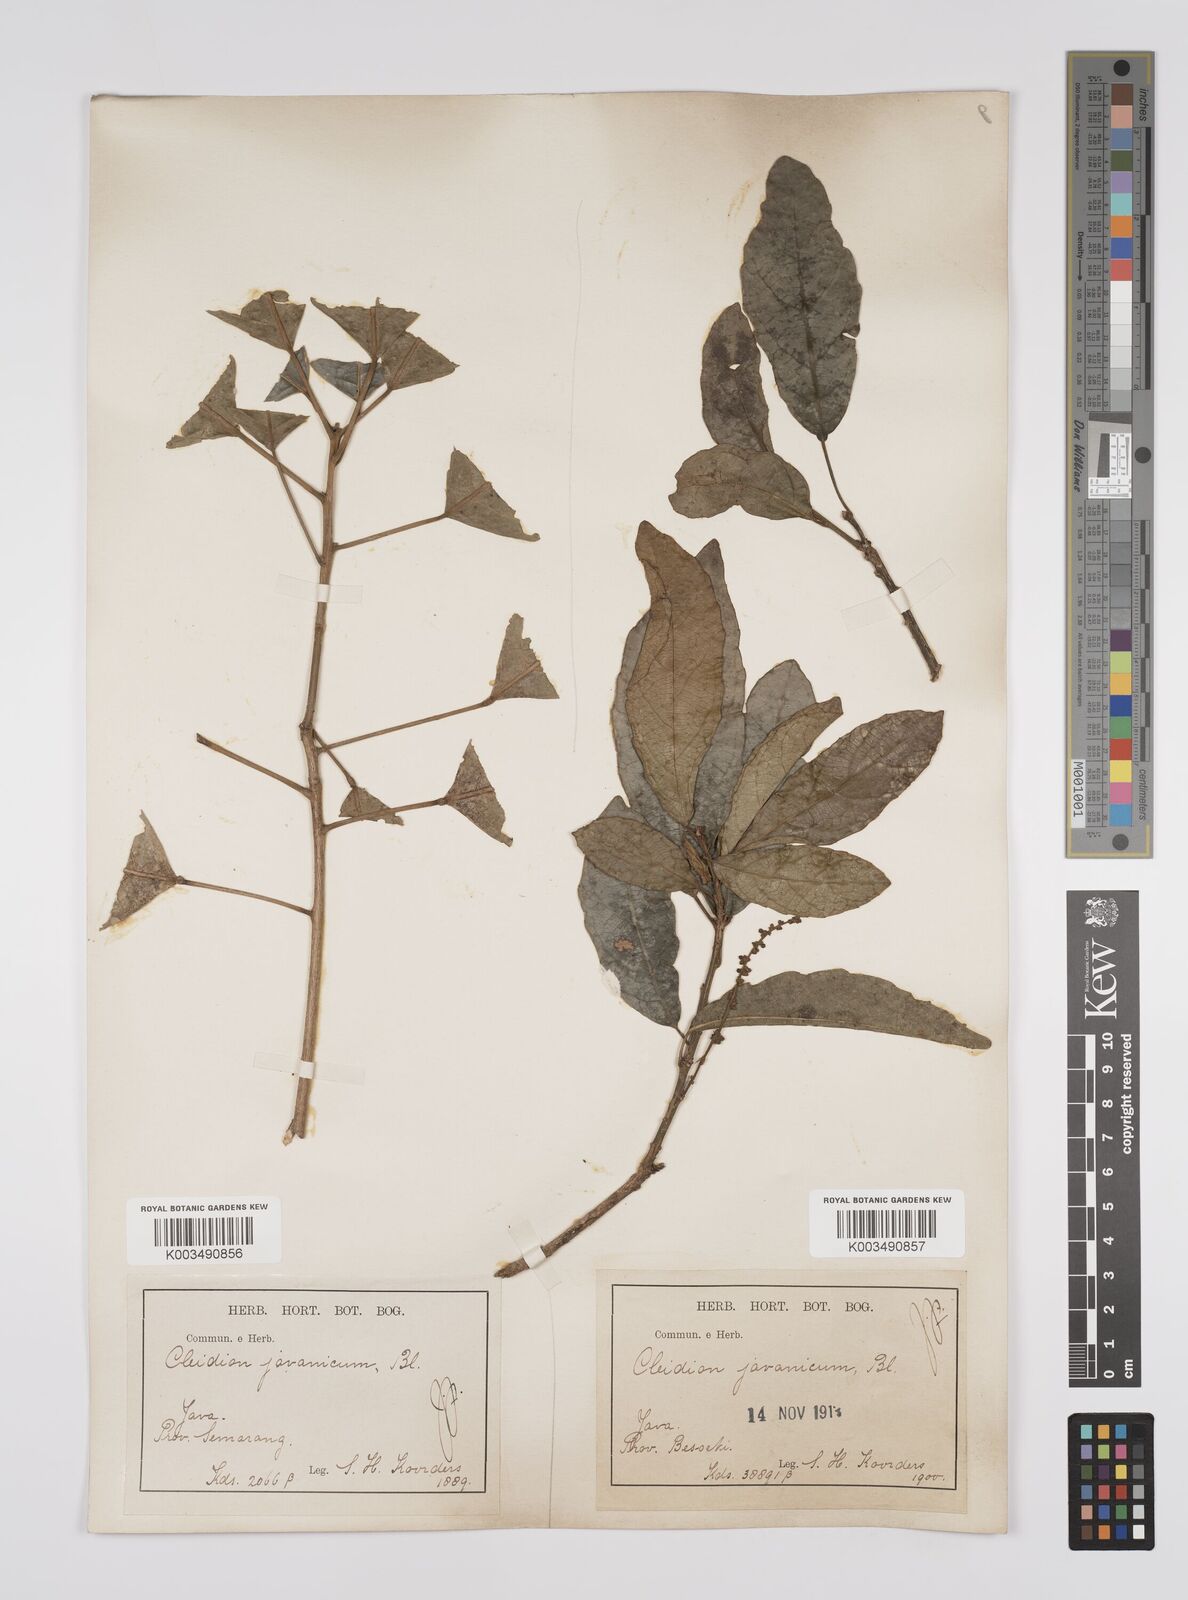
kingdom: Plantae
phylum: Tracheophyta
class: Magnoliopsida
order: Malpighiales
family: Euphorbiaceae
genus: Acalypha
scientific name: Acalypha spiciflora
